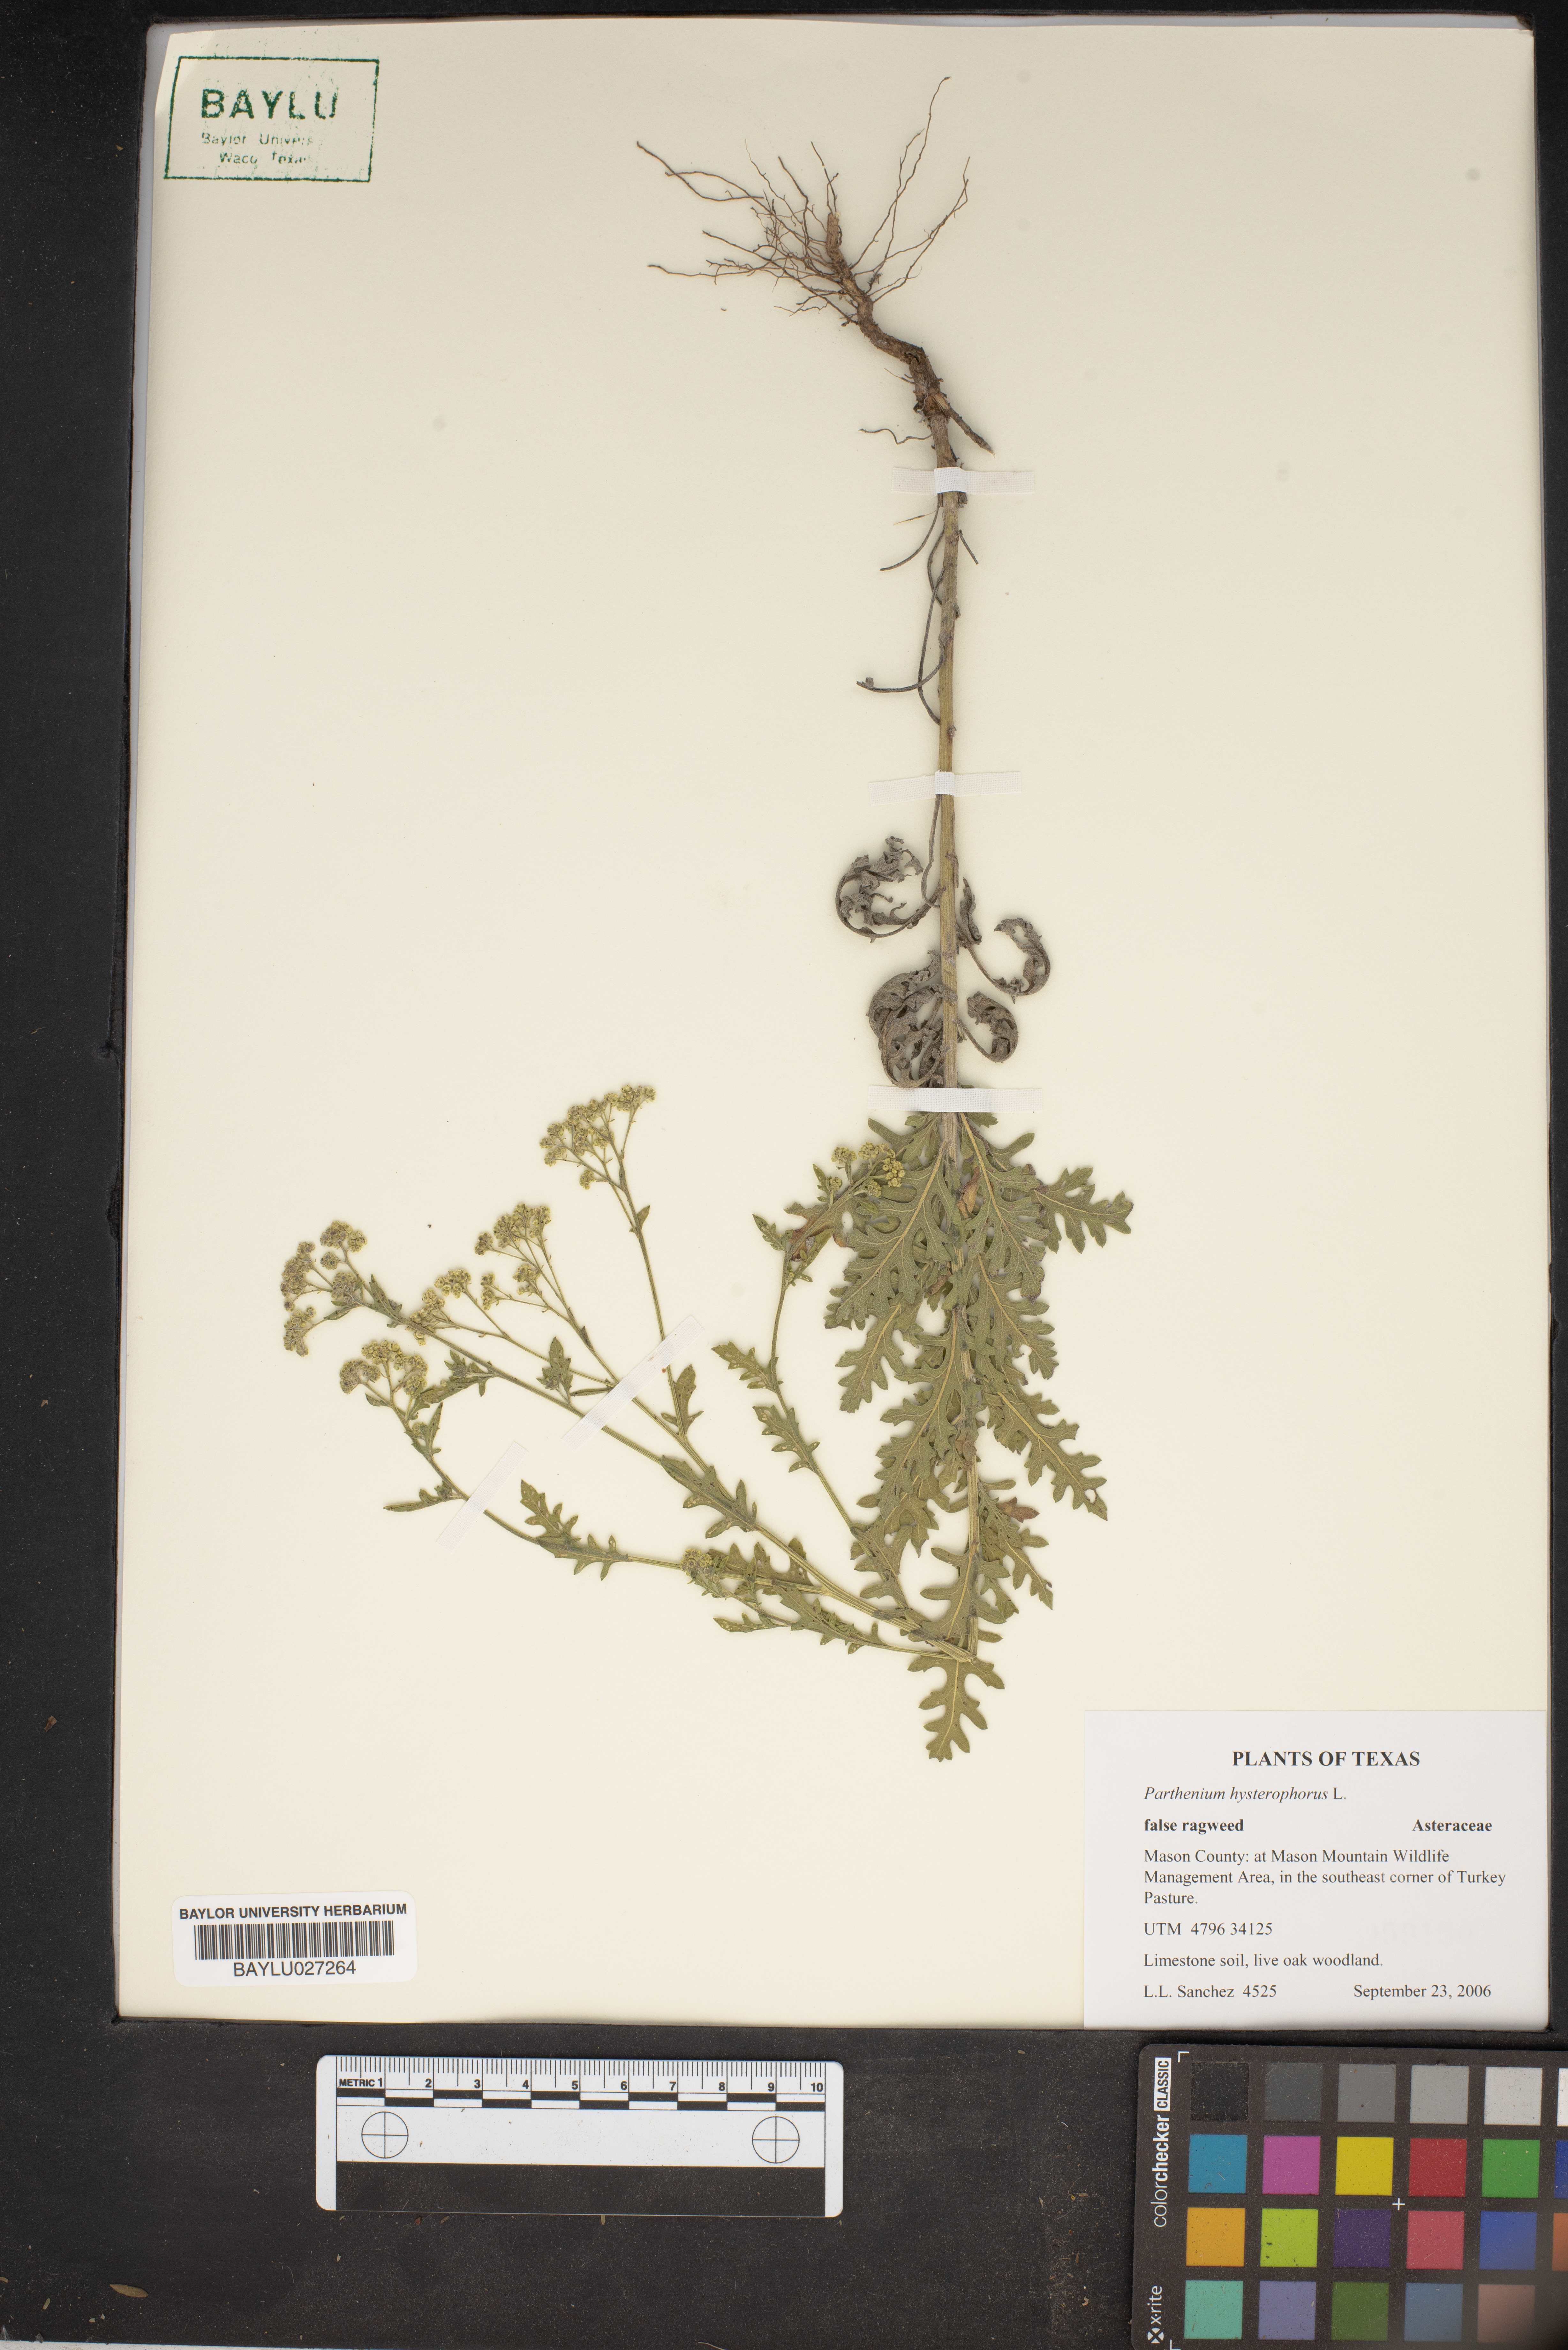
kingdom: Plantae
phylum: Tracheophyta
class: Magnoliopsida
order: Asterales
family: Asteraceae
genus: Parthenium
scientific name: Parthenium hysterophorus
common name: Santa maria feverfew
